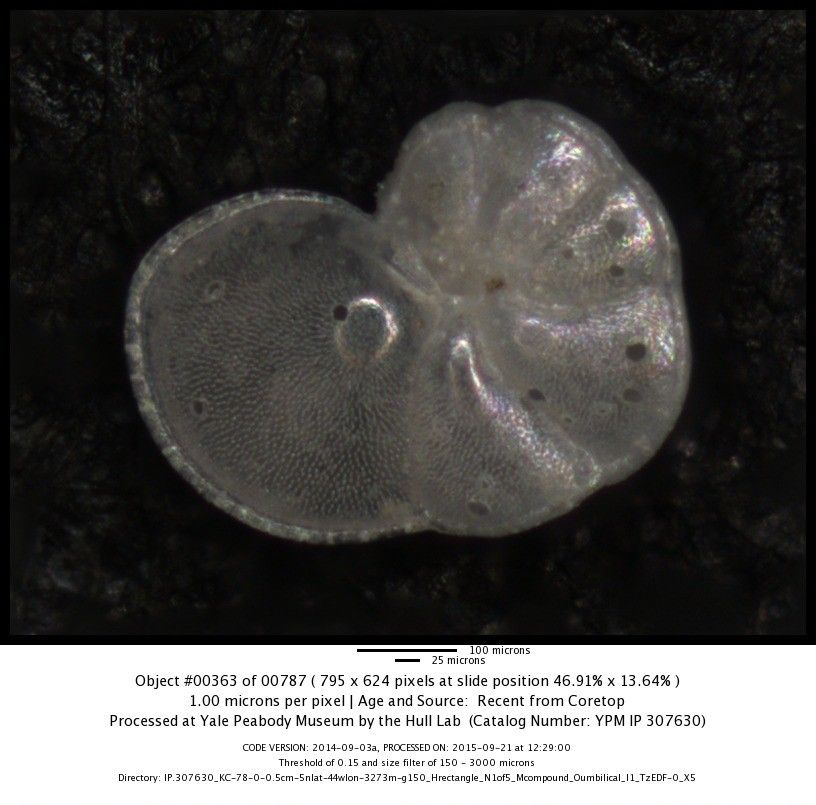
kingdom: Chromista
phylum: Foraminifera
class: Globothalamea
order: Rotaliida
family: Globorotaliidae
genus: Globorotalia
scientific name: Globorotalia menardii
